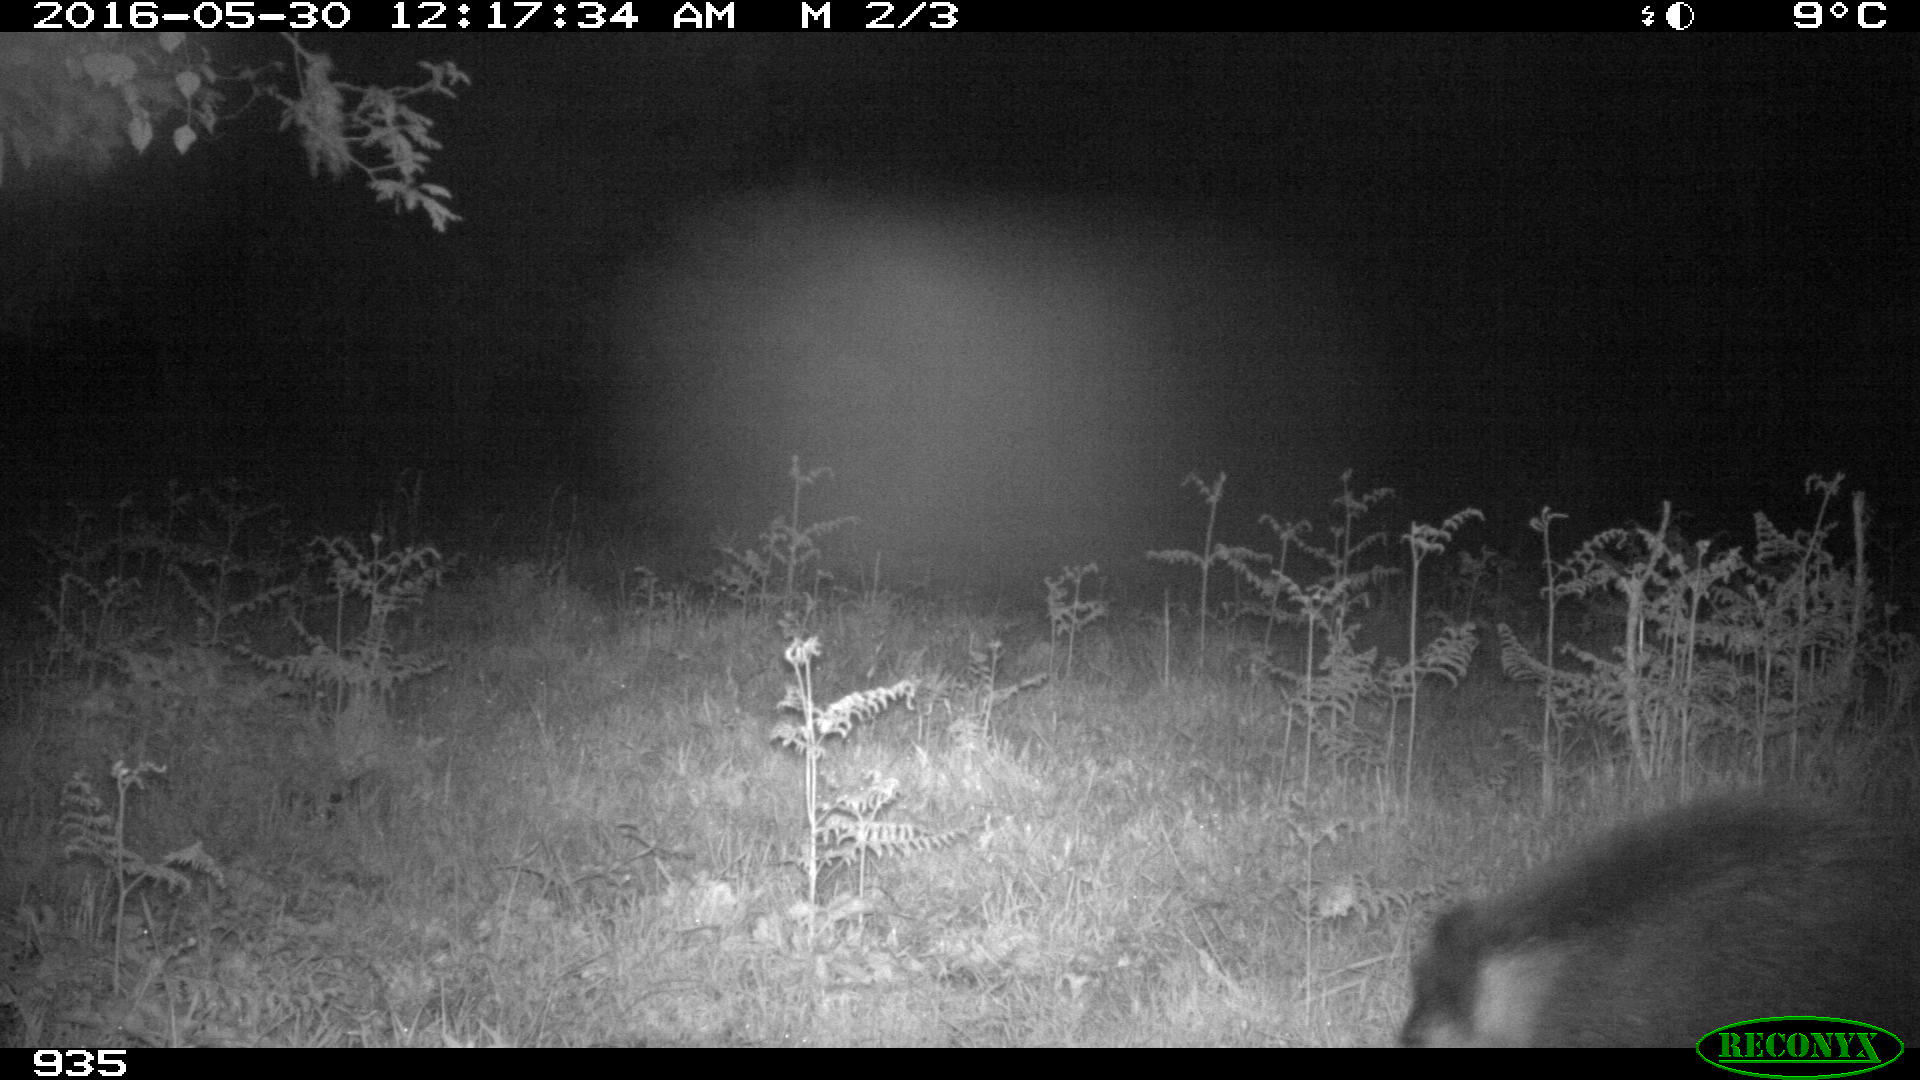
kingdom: Animalia
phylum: Chordata
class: Mammalia
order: Artiodactyla
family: Suidae
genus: Sus
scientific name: Sus scrofa
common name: Wild boar
